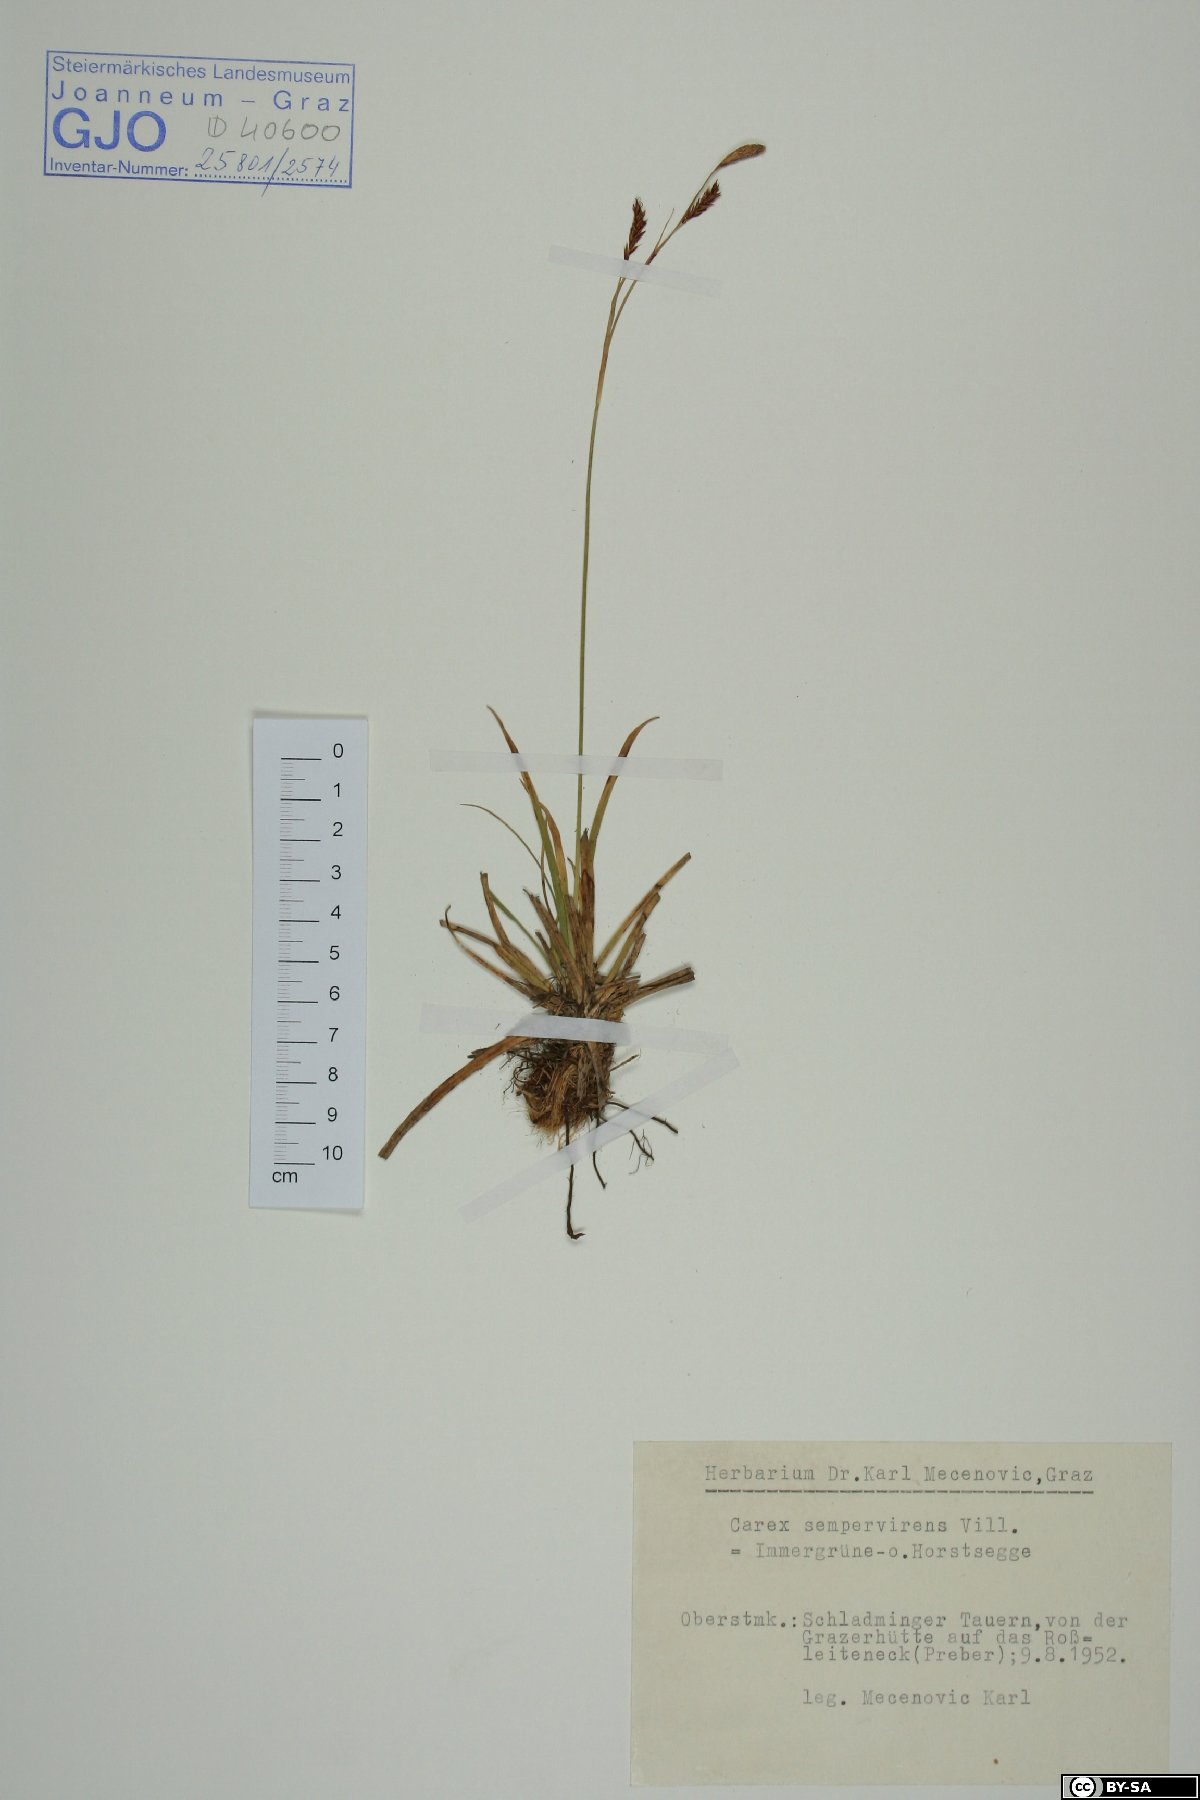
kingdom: Plantae
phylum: Tracheophyta
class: Liliopsida
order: Poales
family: Cyperaceae
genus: Carex
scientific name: Carex sempervirens
